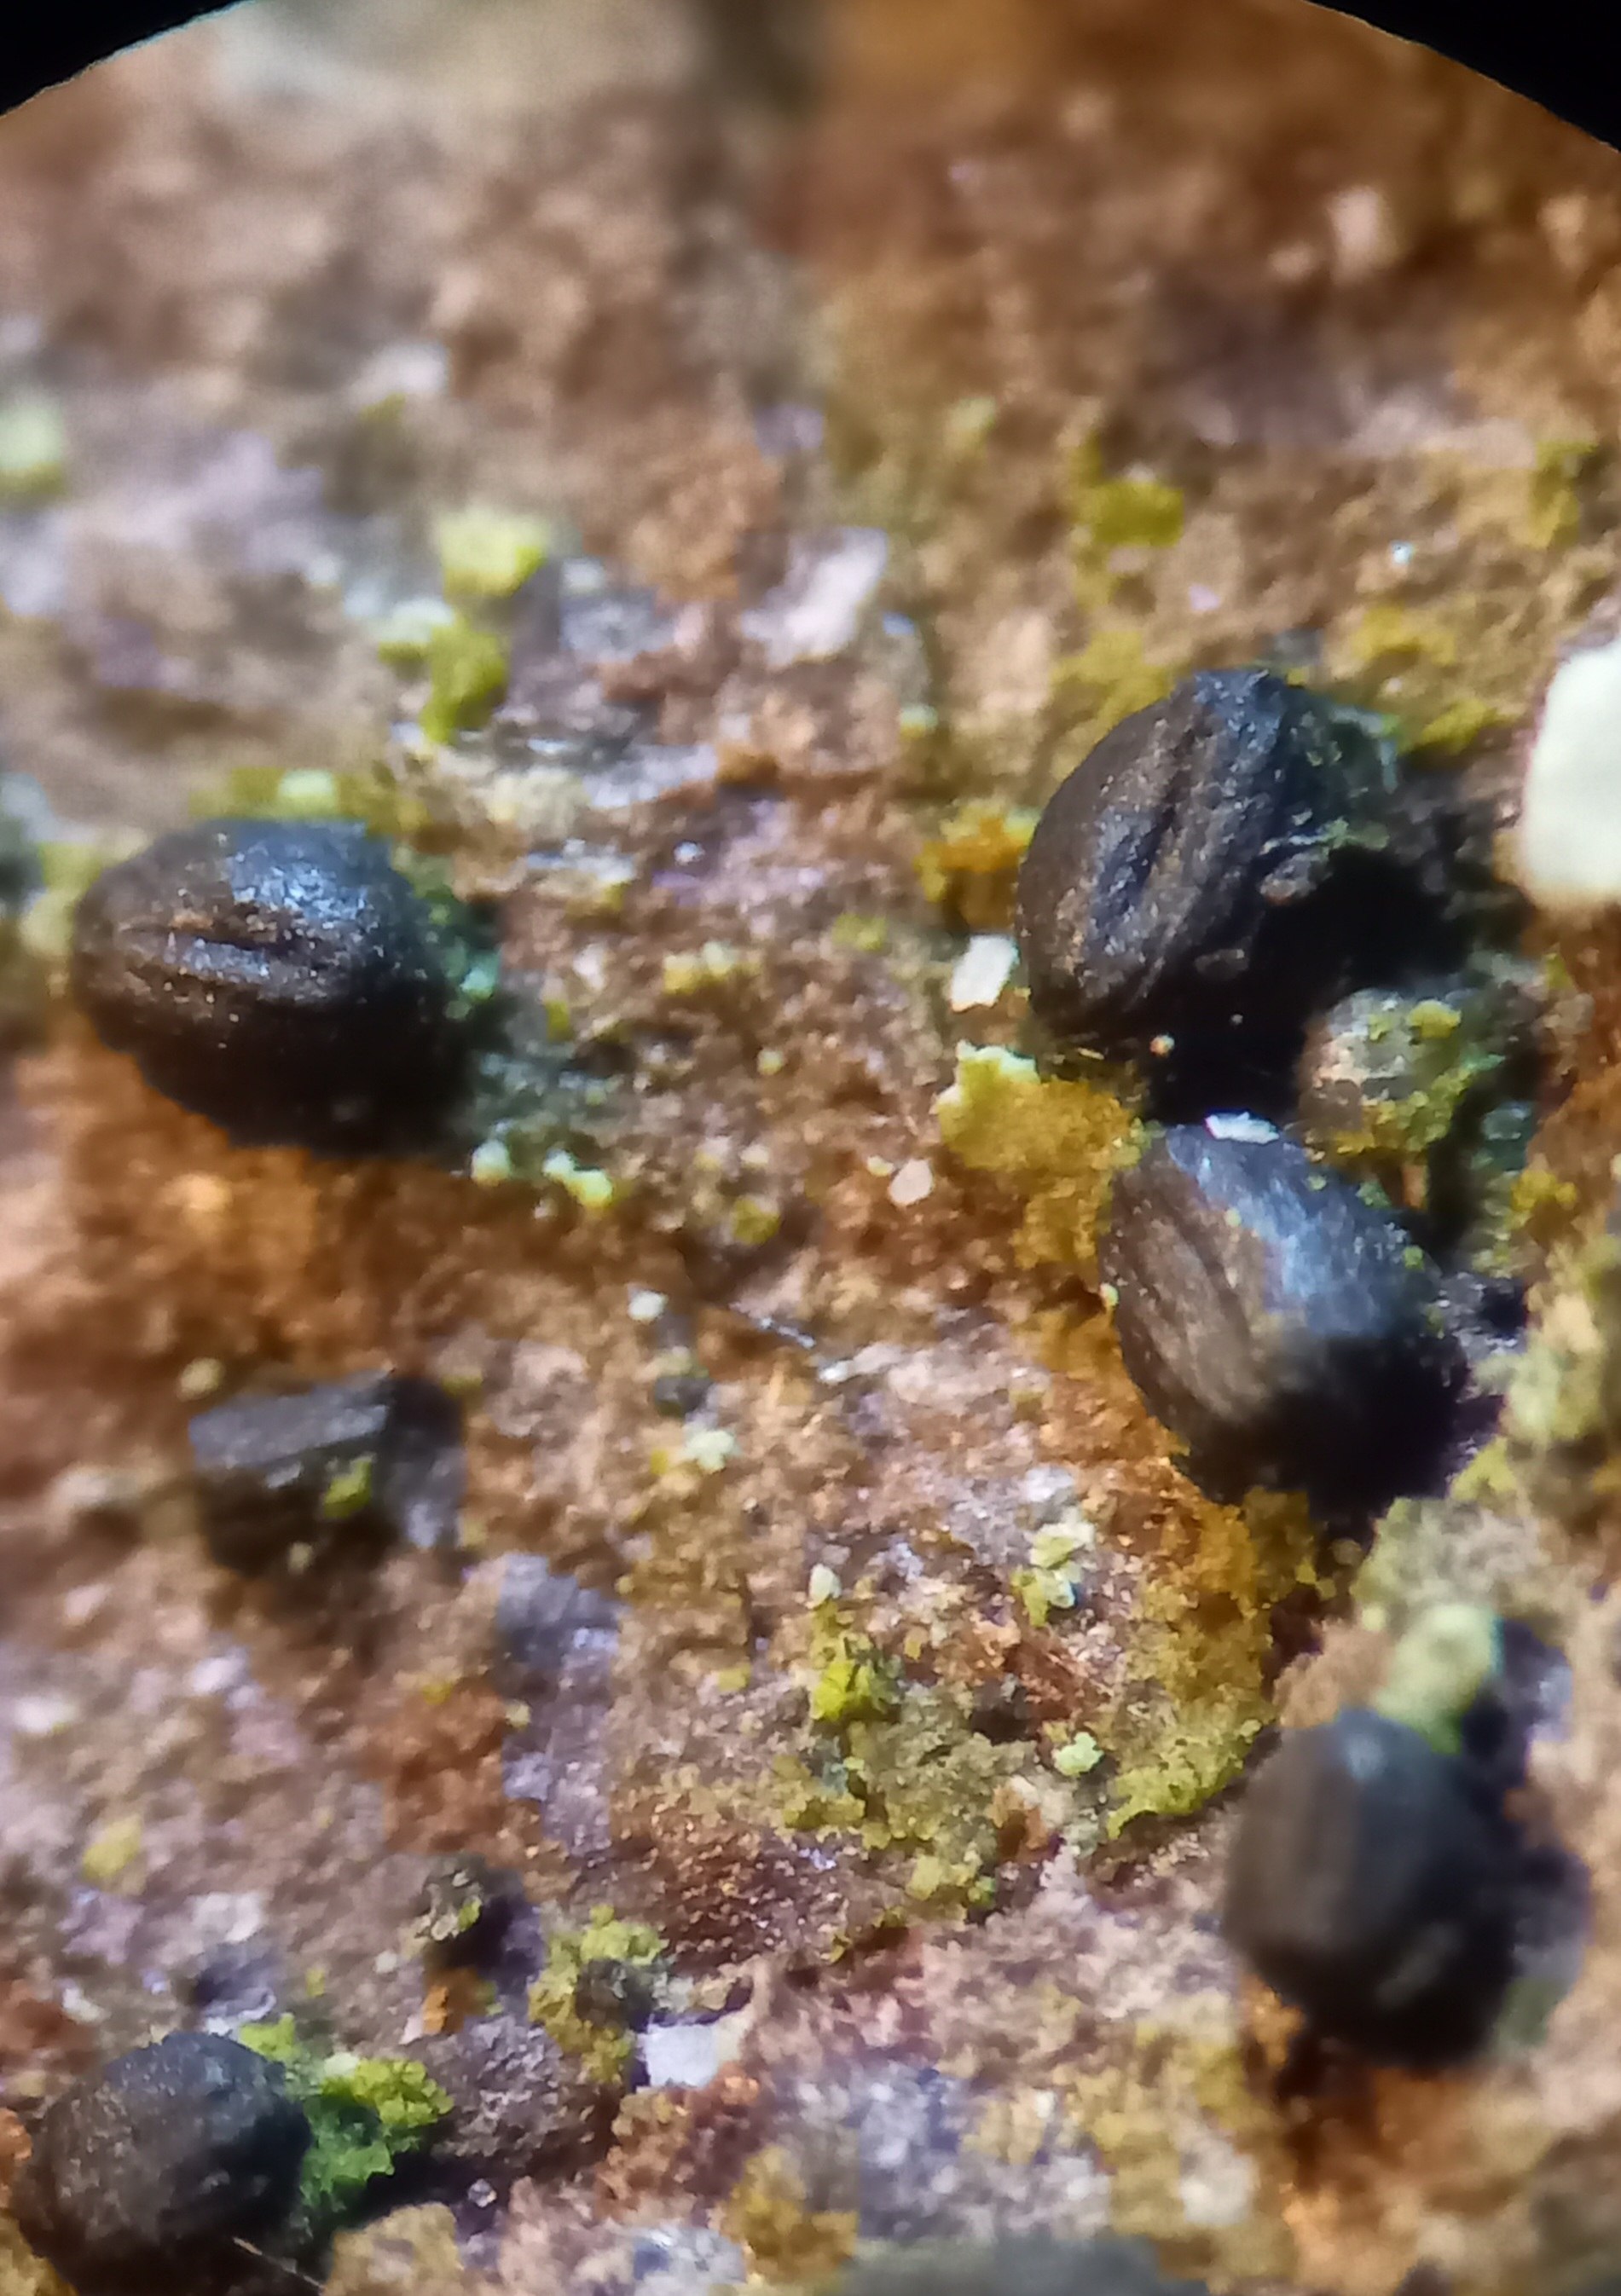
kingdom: Fungi
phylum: Ascomycota
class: Dothideomycetes
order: Hysteriales
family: Hysteriaceae
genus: Hysterium
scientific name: Hysterium acuminatum
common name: almindelig kulmund
